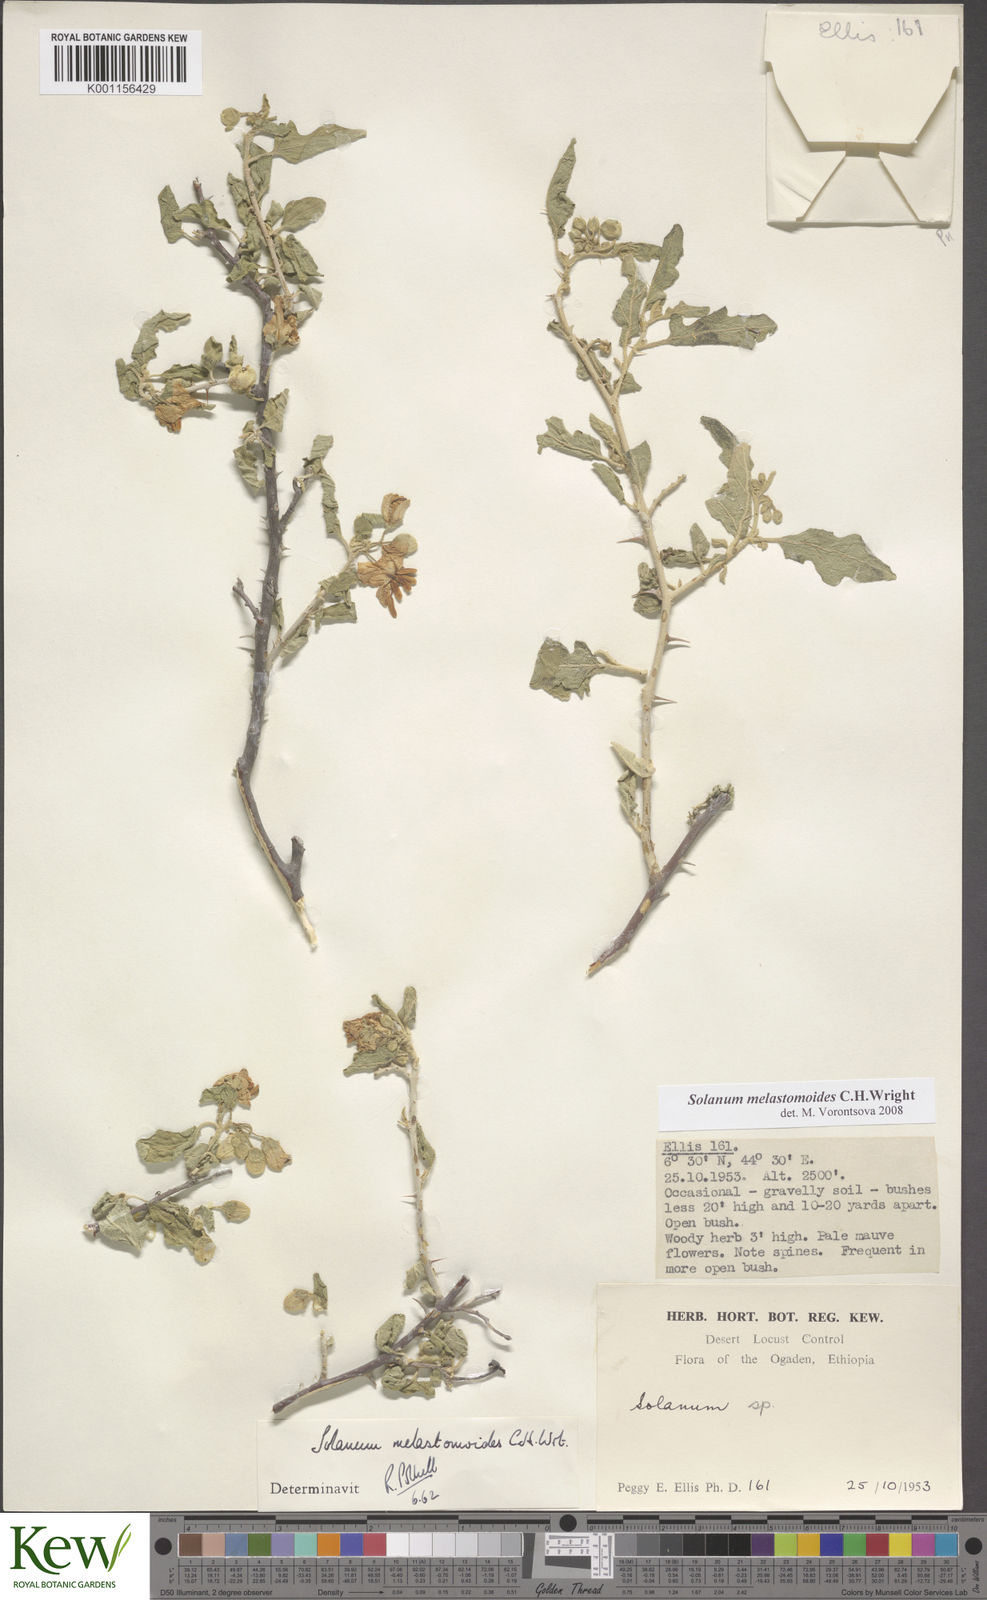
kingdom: Plantae
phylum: Tracheophyta
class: Magnoliopsida
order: Solanales
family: Solanaceae
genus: Solanum
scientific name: Solanum melastomoides
